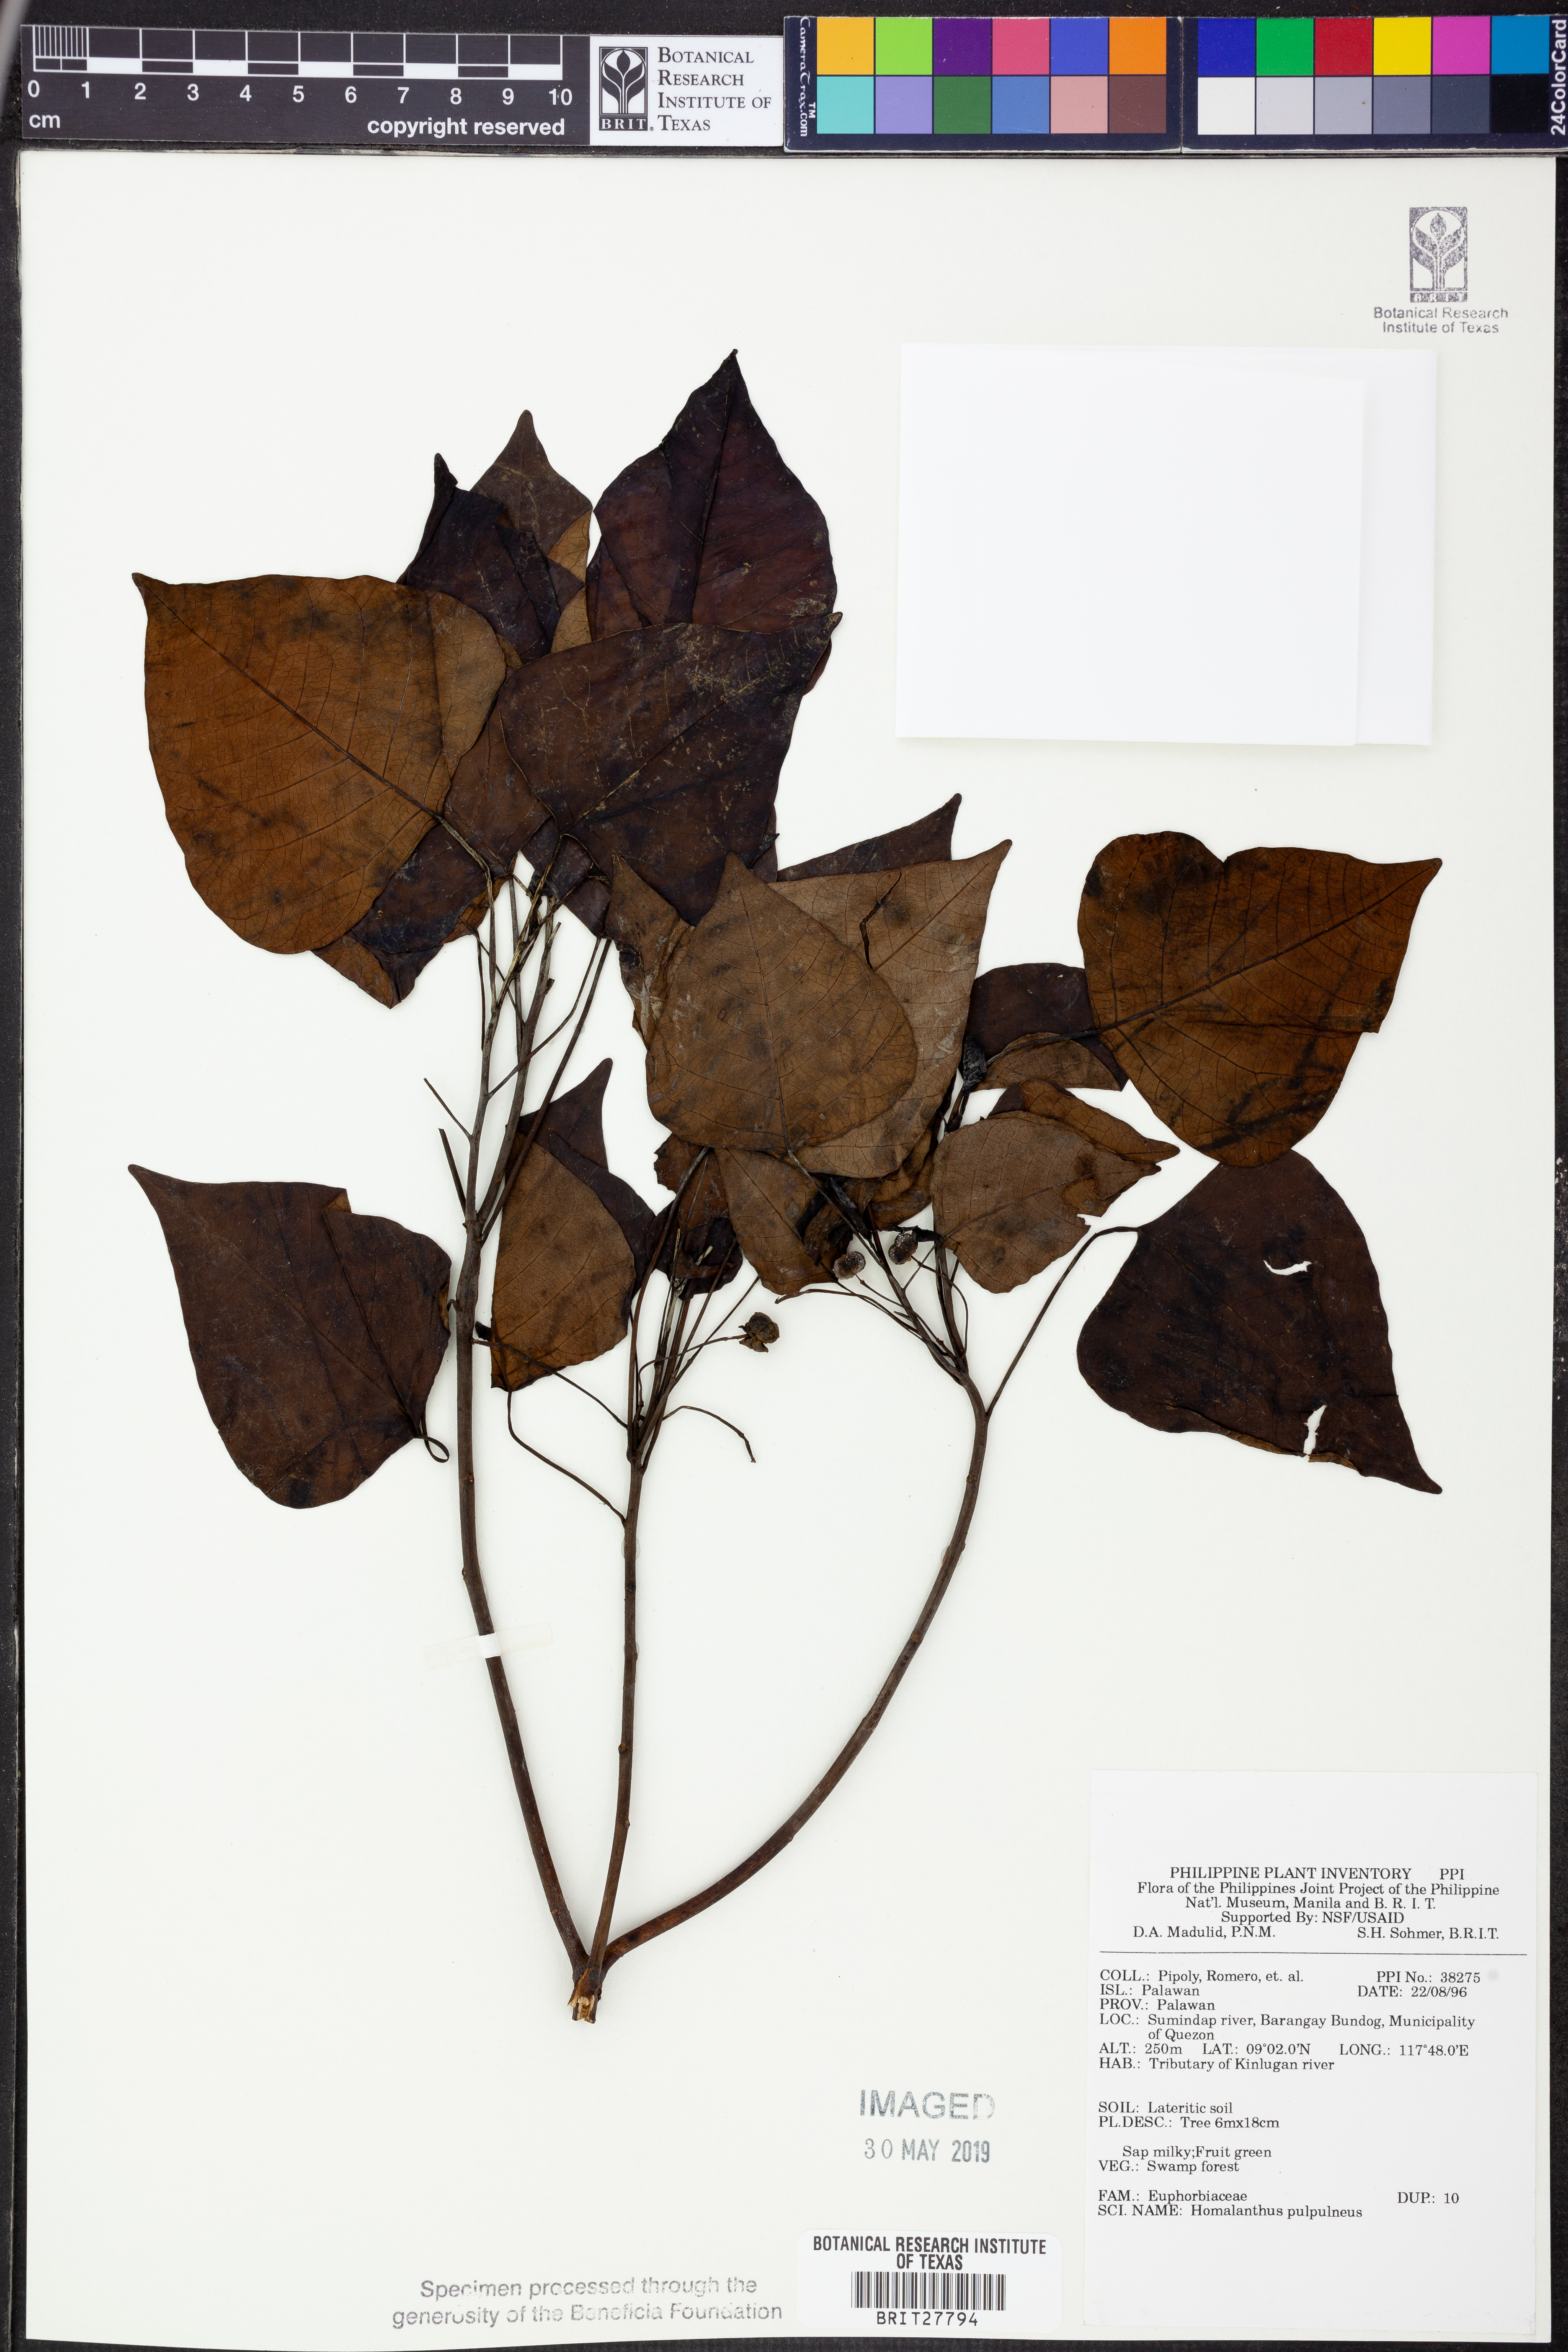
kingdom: Plantae
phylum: Tracheophyta
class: Magnoliopsida
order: Malpighiales
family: Euphorbiaceae
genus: Homalanthus
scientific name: Homalanthus populneus
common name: Spurge
